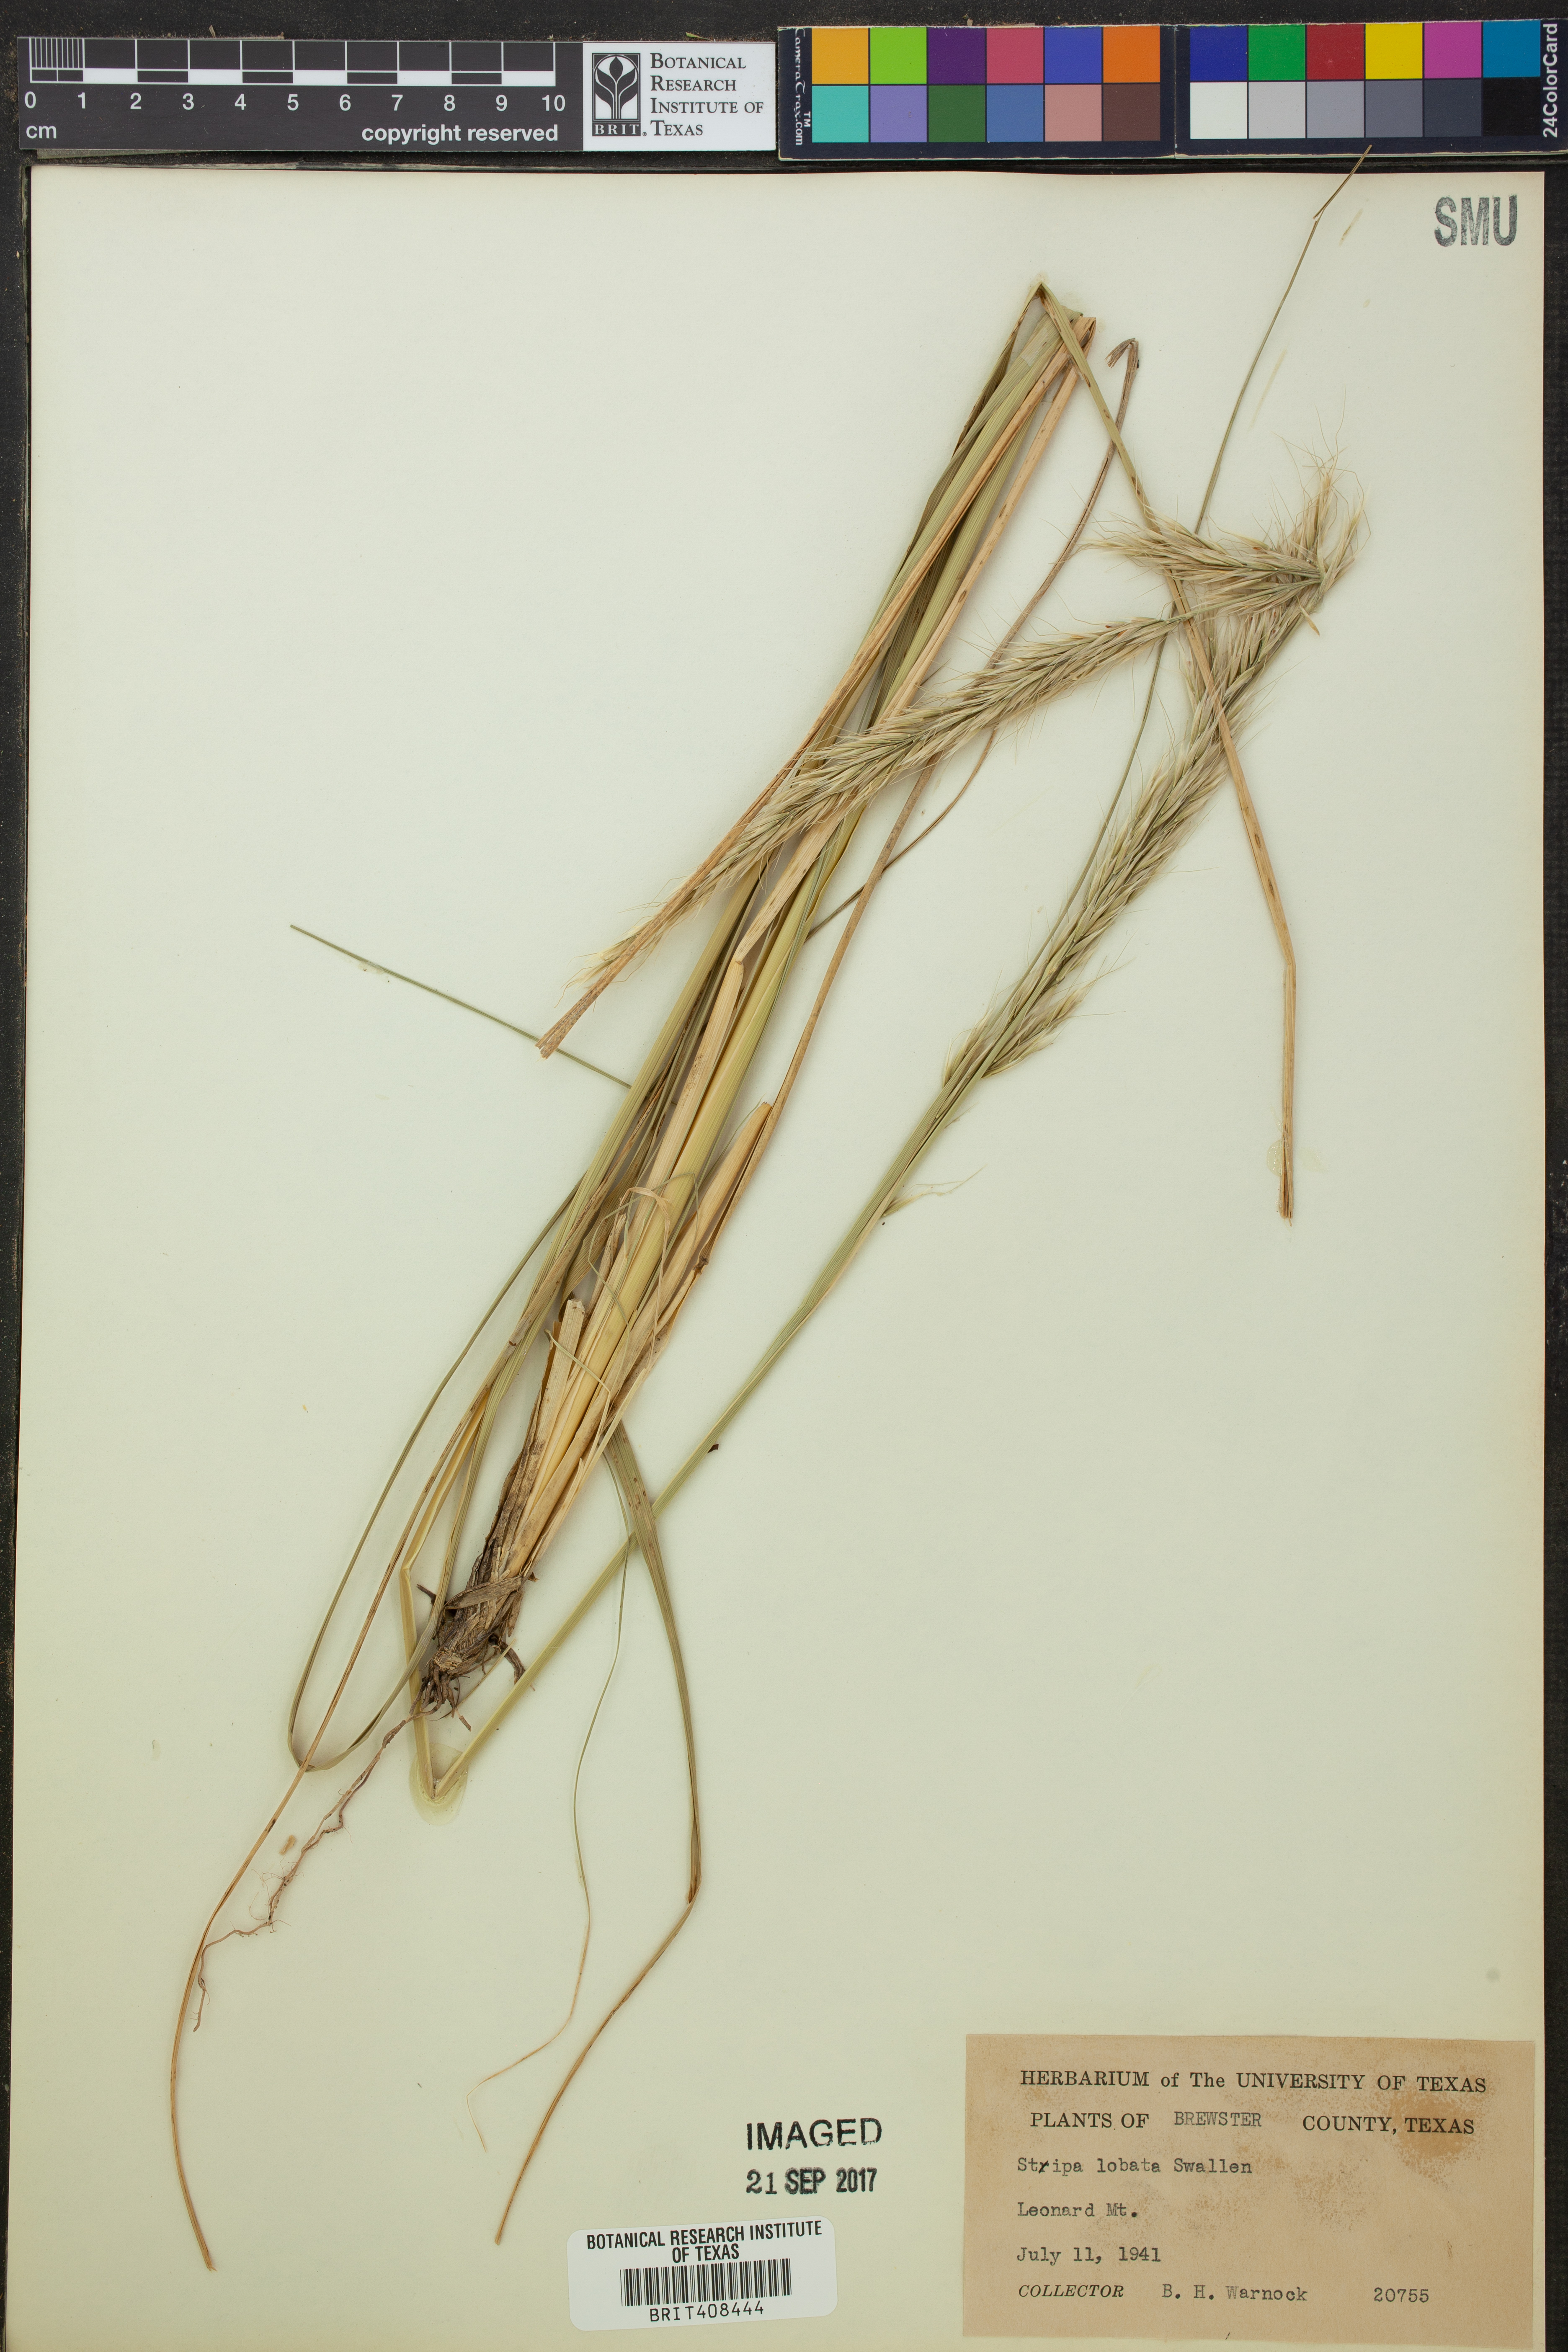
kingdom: Plantae
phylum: Tracheophyta
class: Liliopsida
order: Poales
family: Poaceae
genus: Eriocoma
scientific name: Eriocoma lobata
